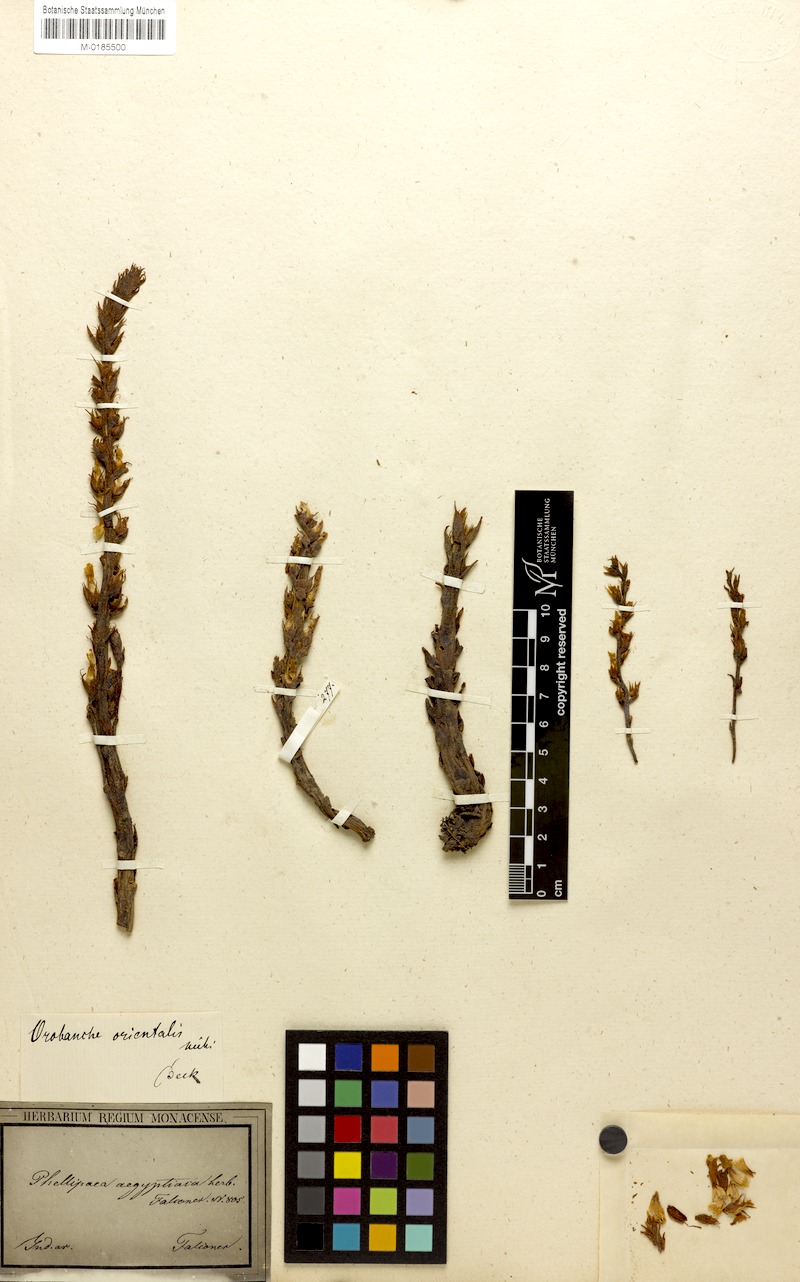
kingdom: Plantae
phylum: Tracheophyta
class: Magnoliopsida
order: Lamiales
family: Orobanchaceae
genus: Phelipanche
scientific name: Phelipanche orientalis
